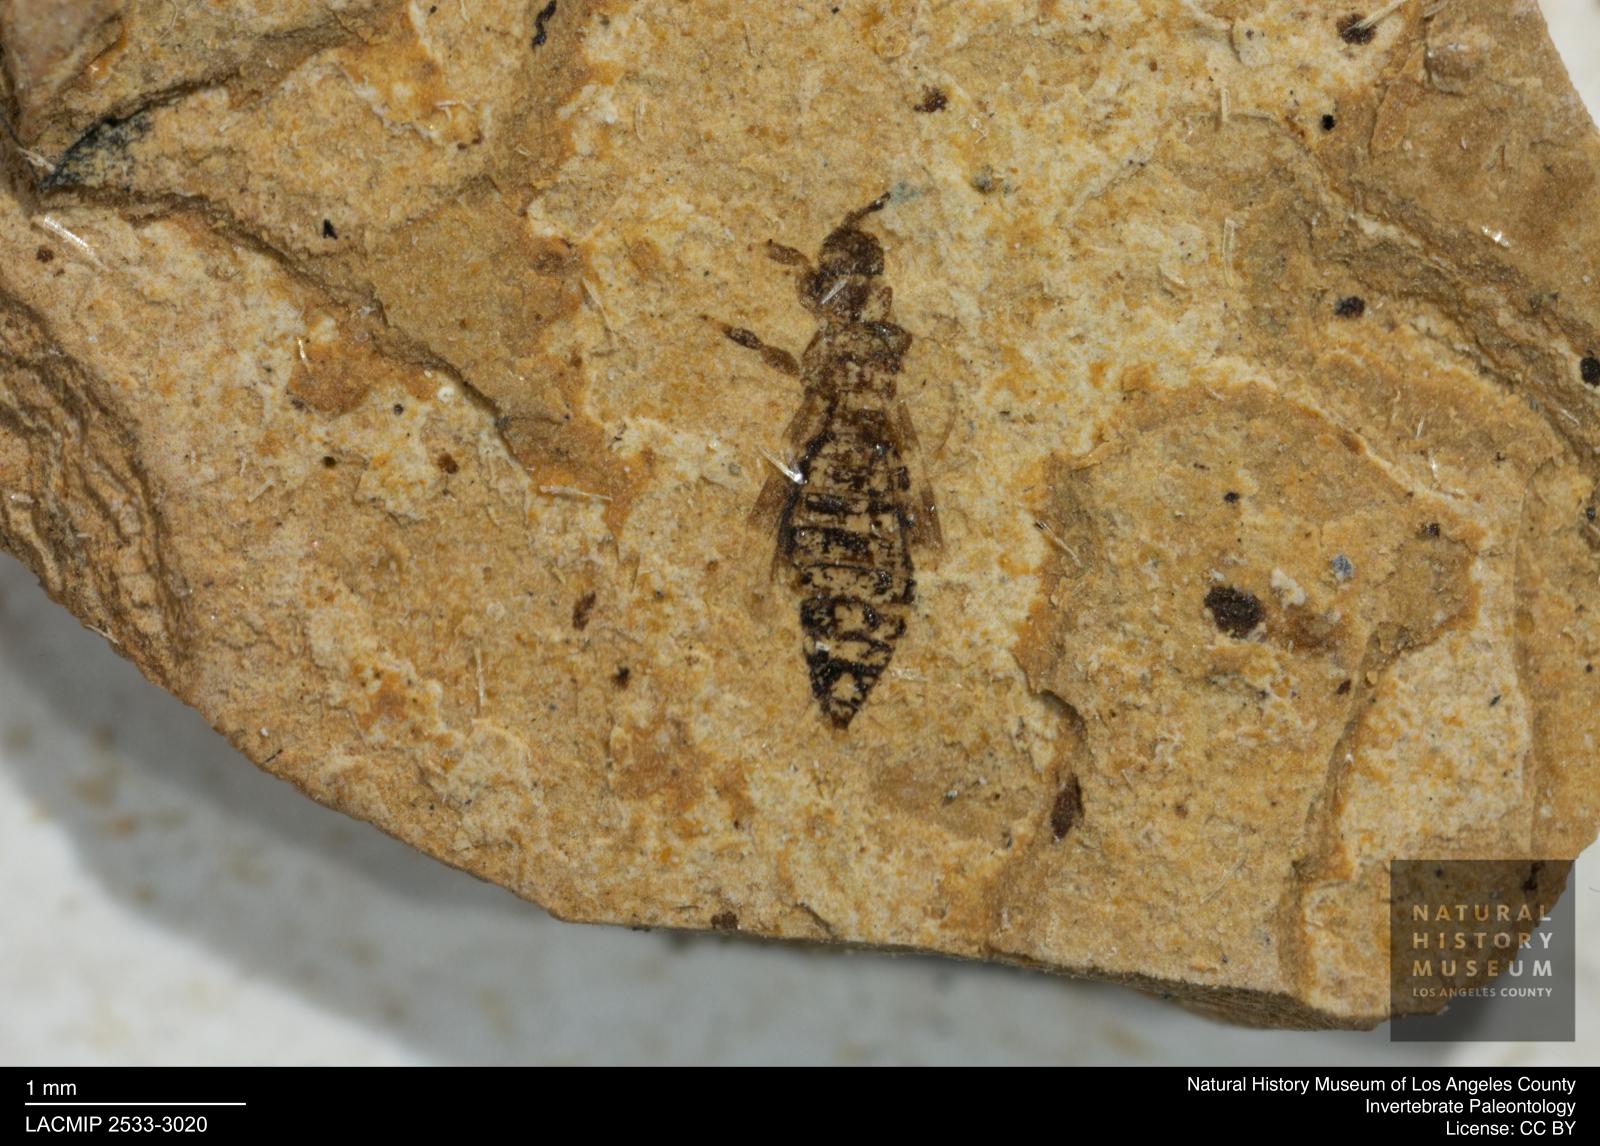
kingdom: Animalia
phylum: Arthropoda
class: Insecta
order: Thysanoptera
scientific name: Thysanoptera
